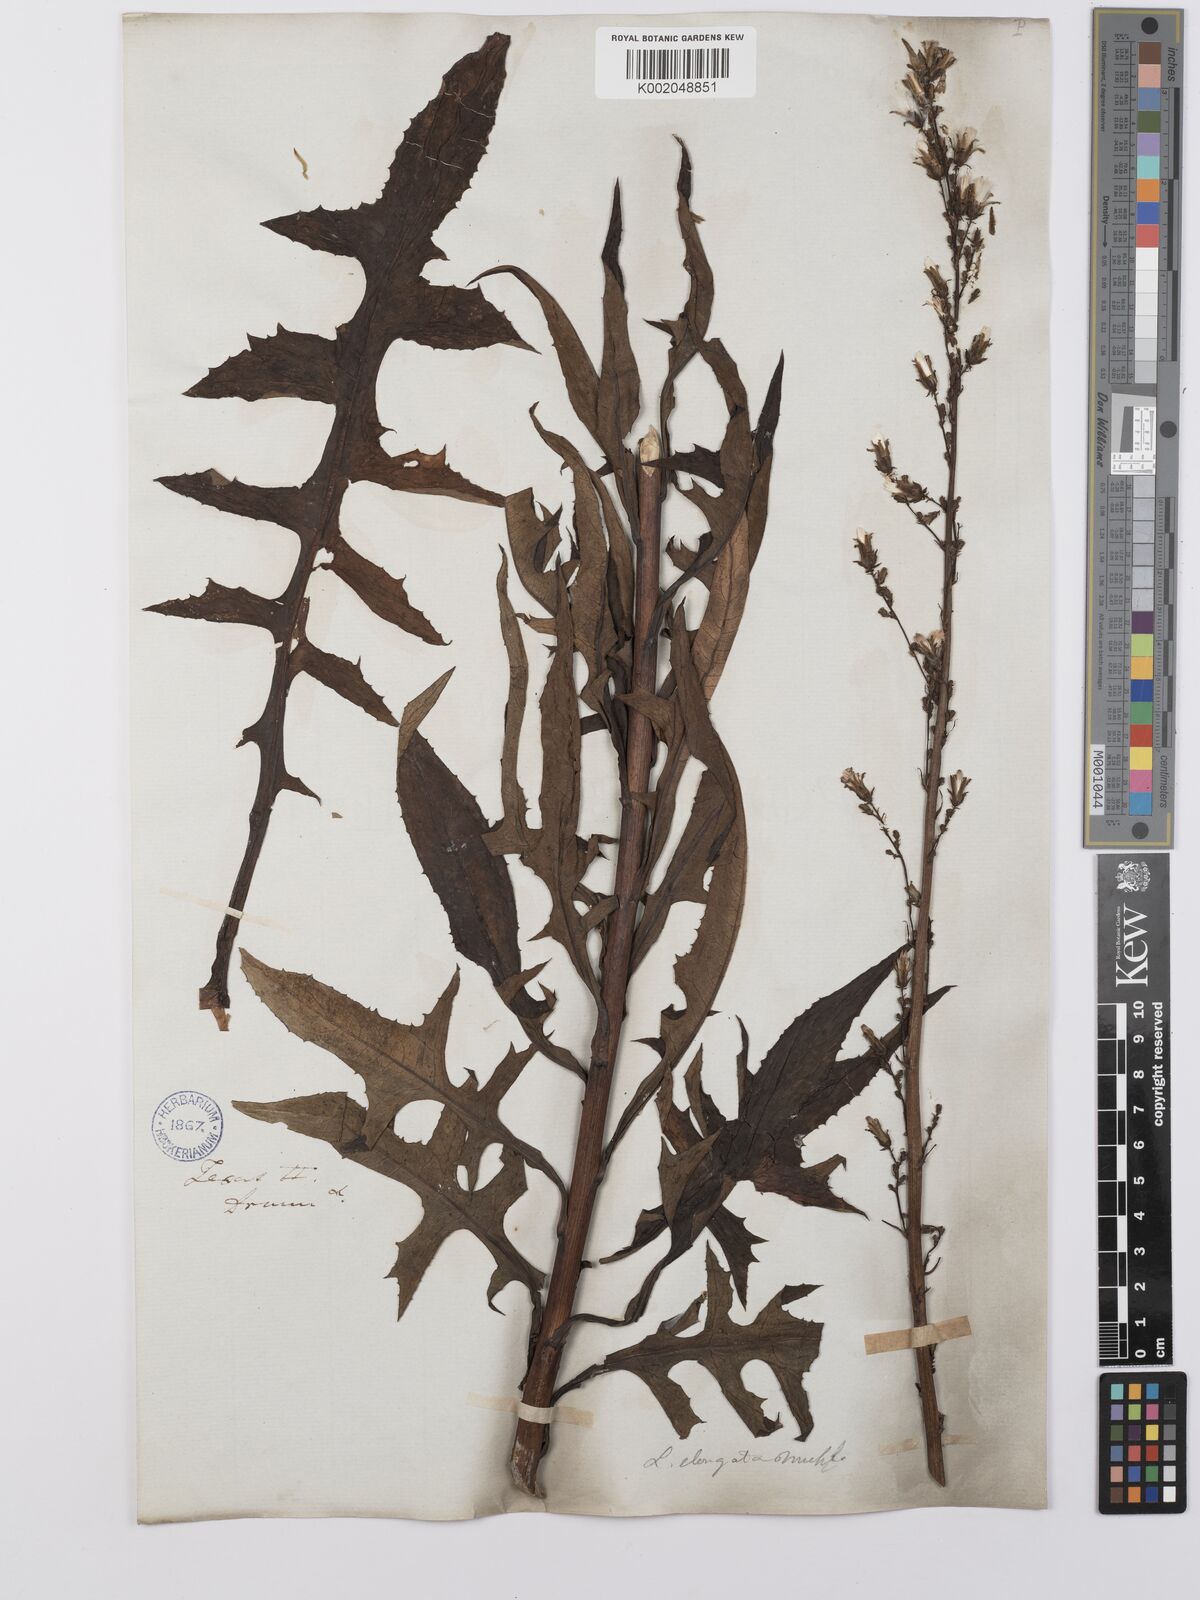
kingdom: Plantae
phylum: Tracheophyta
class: Magnoliopsida
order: Asterales
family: Asteraceae
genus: Lactuca
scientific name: Lactuca canadensis
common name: Canada lettuce
